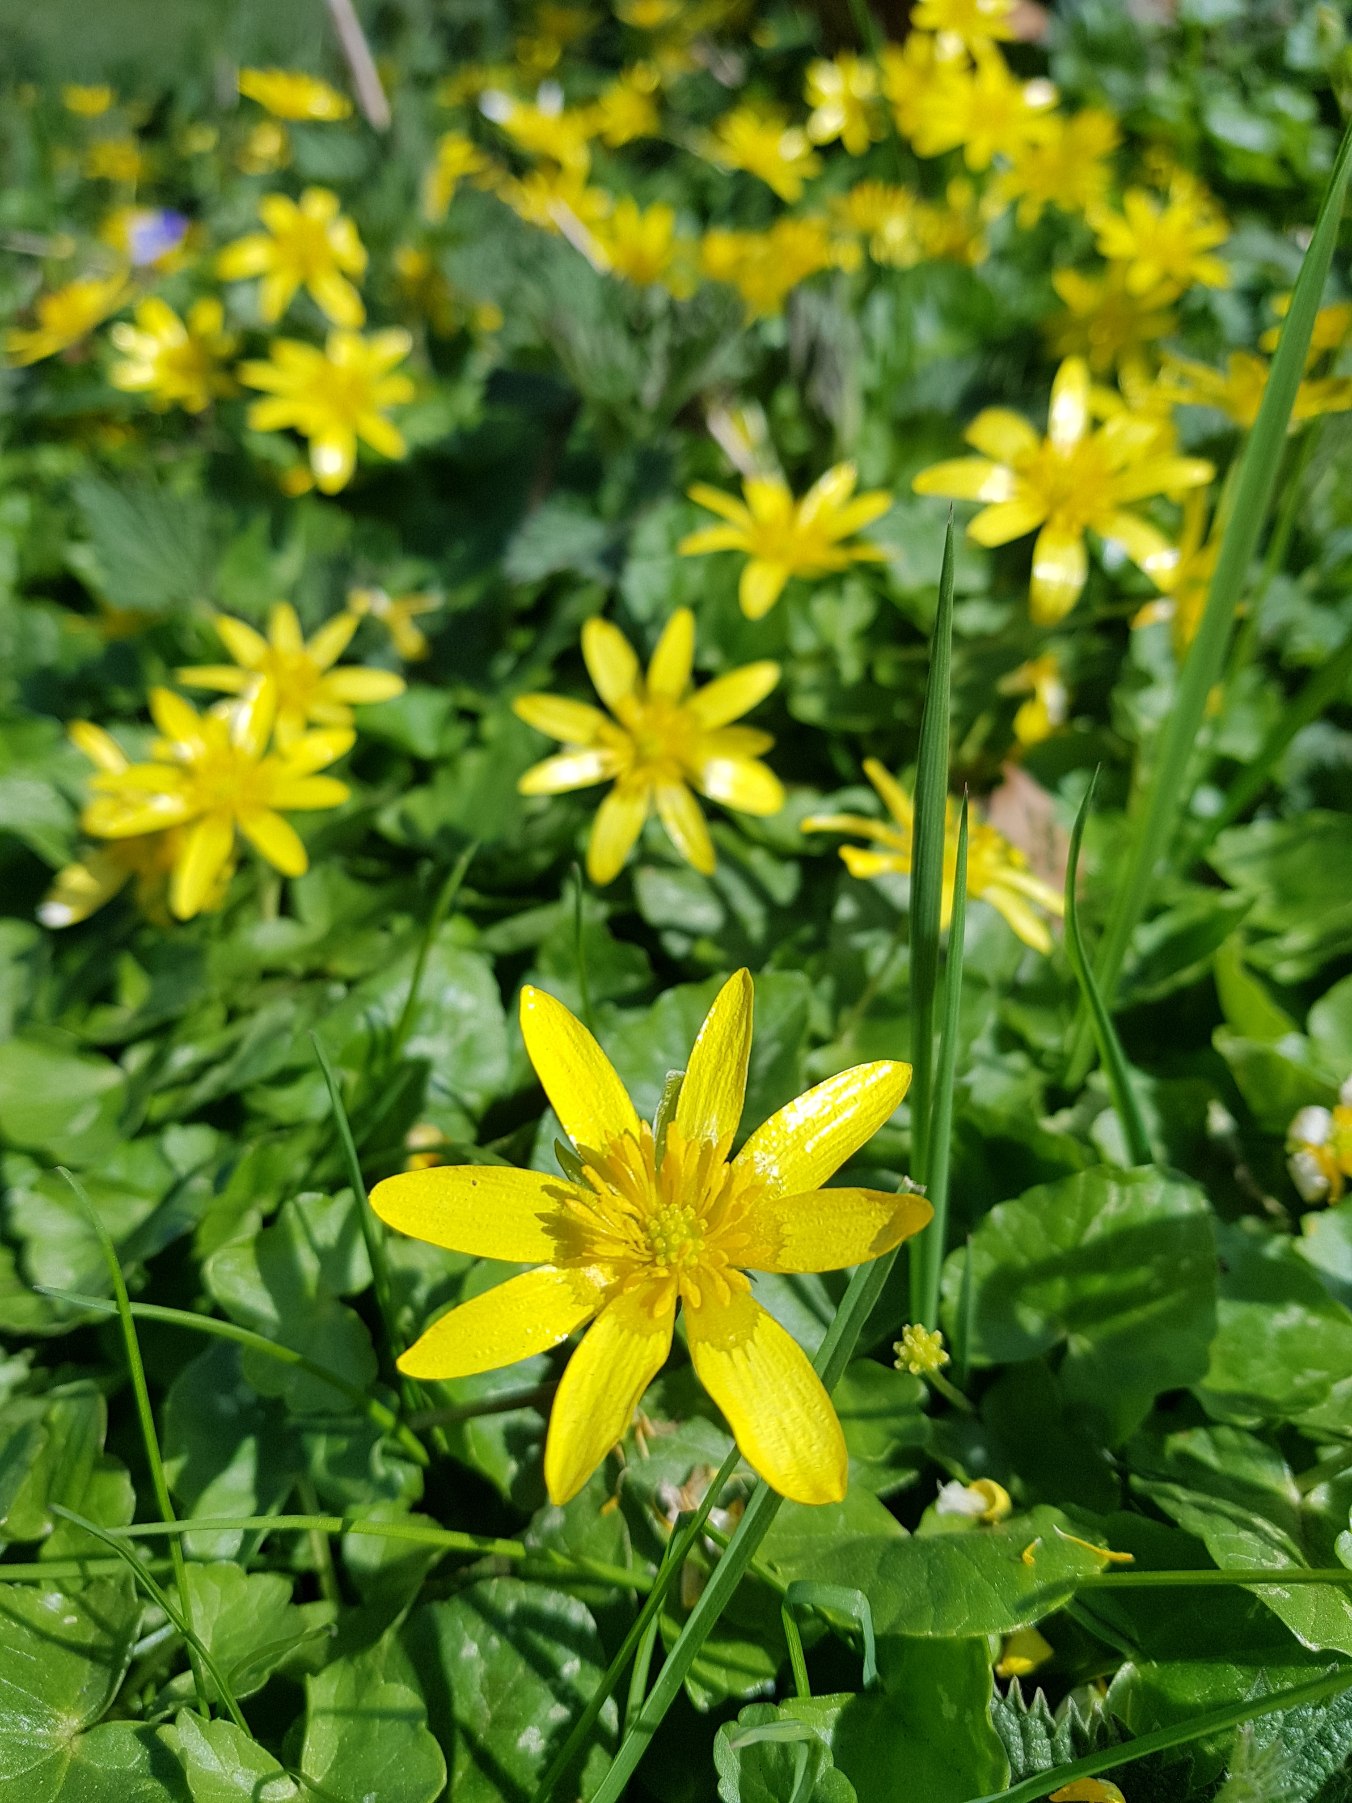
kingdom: Plantae
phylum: Tracheophyta
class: Magnoliopsida
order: Ranunculales
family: Ranunculaceae
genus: Ficaria
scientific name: Ficaria verna
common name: Vorterod
